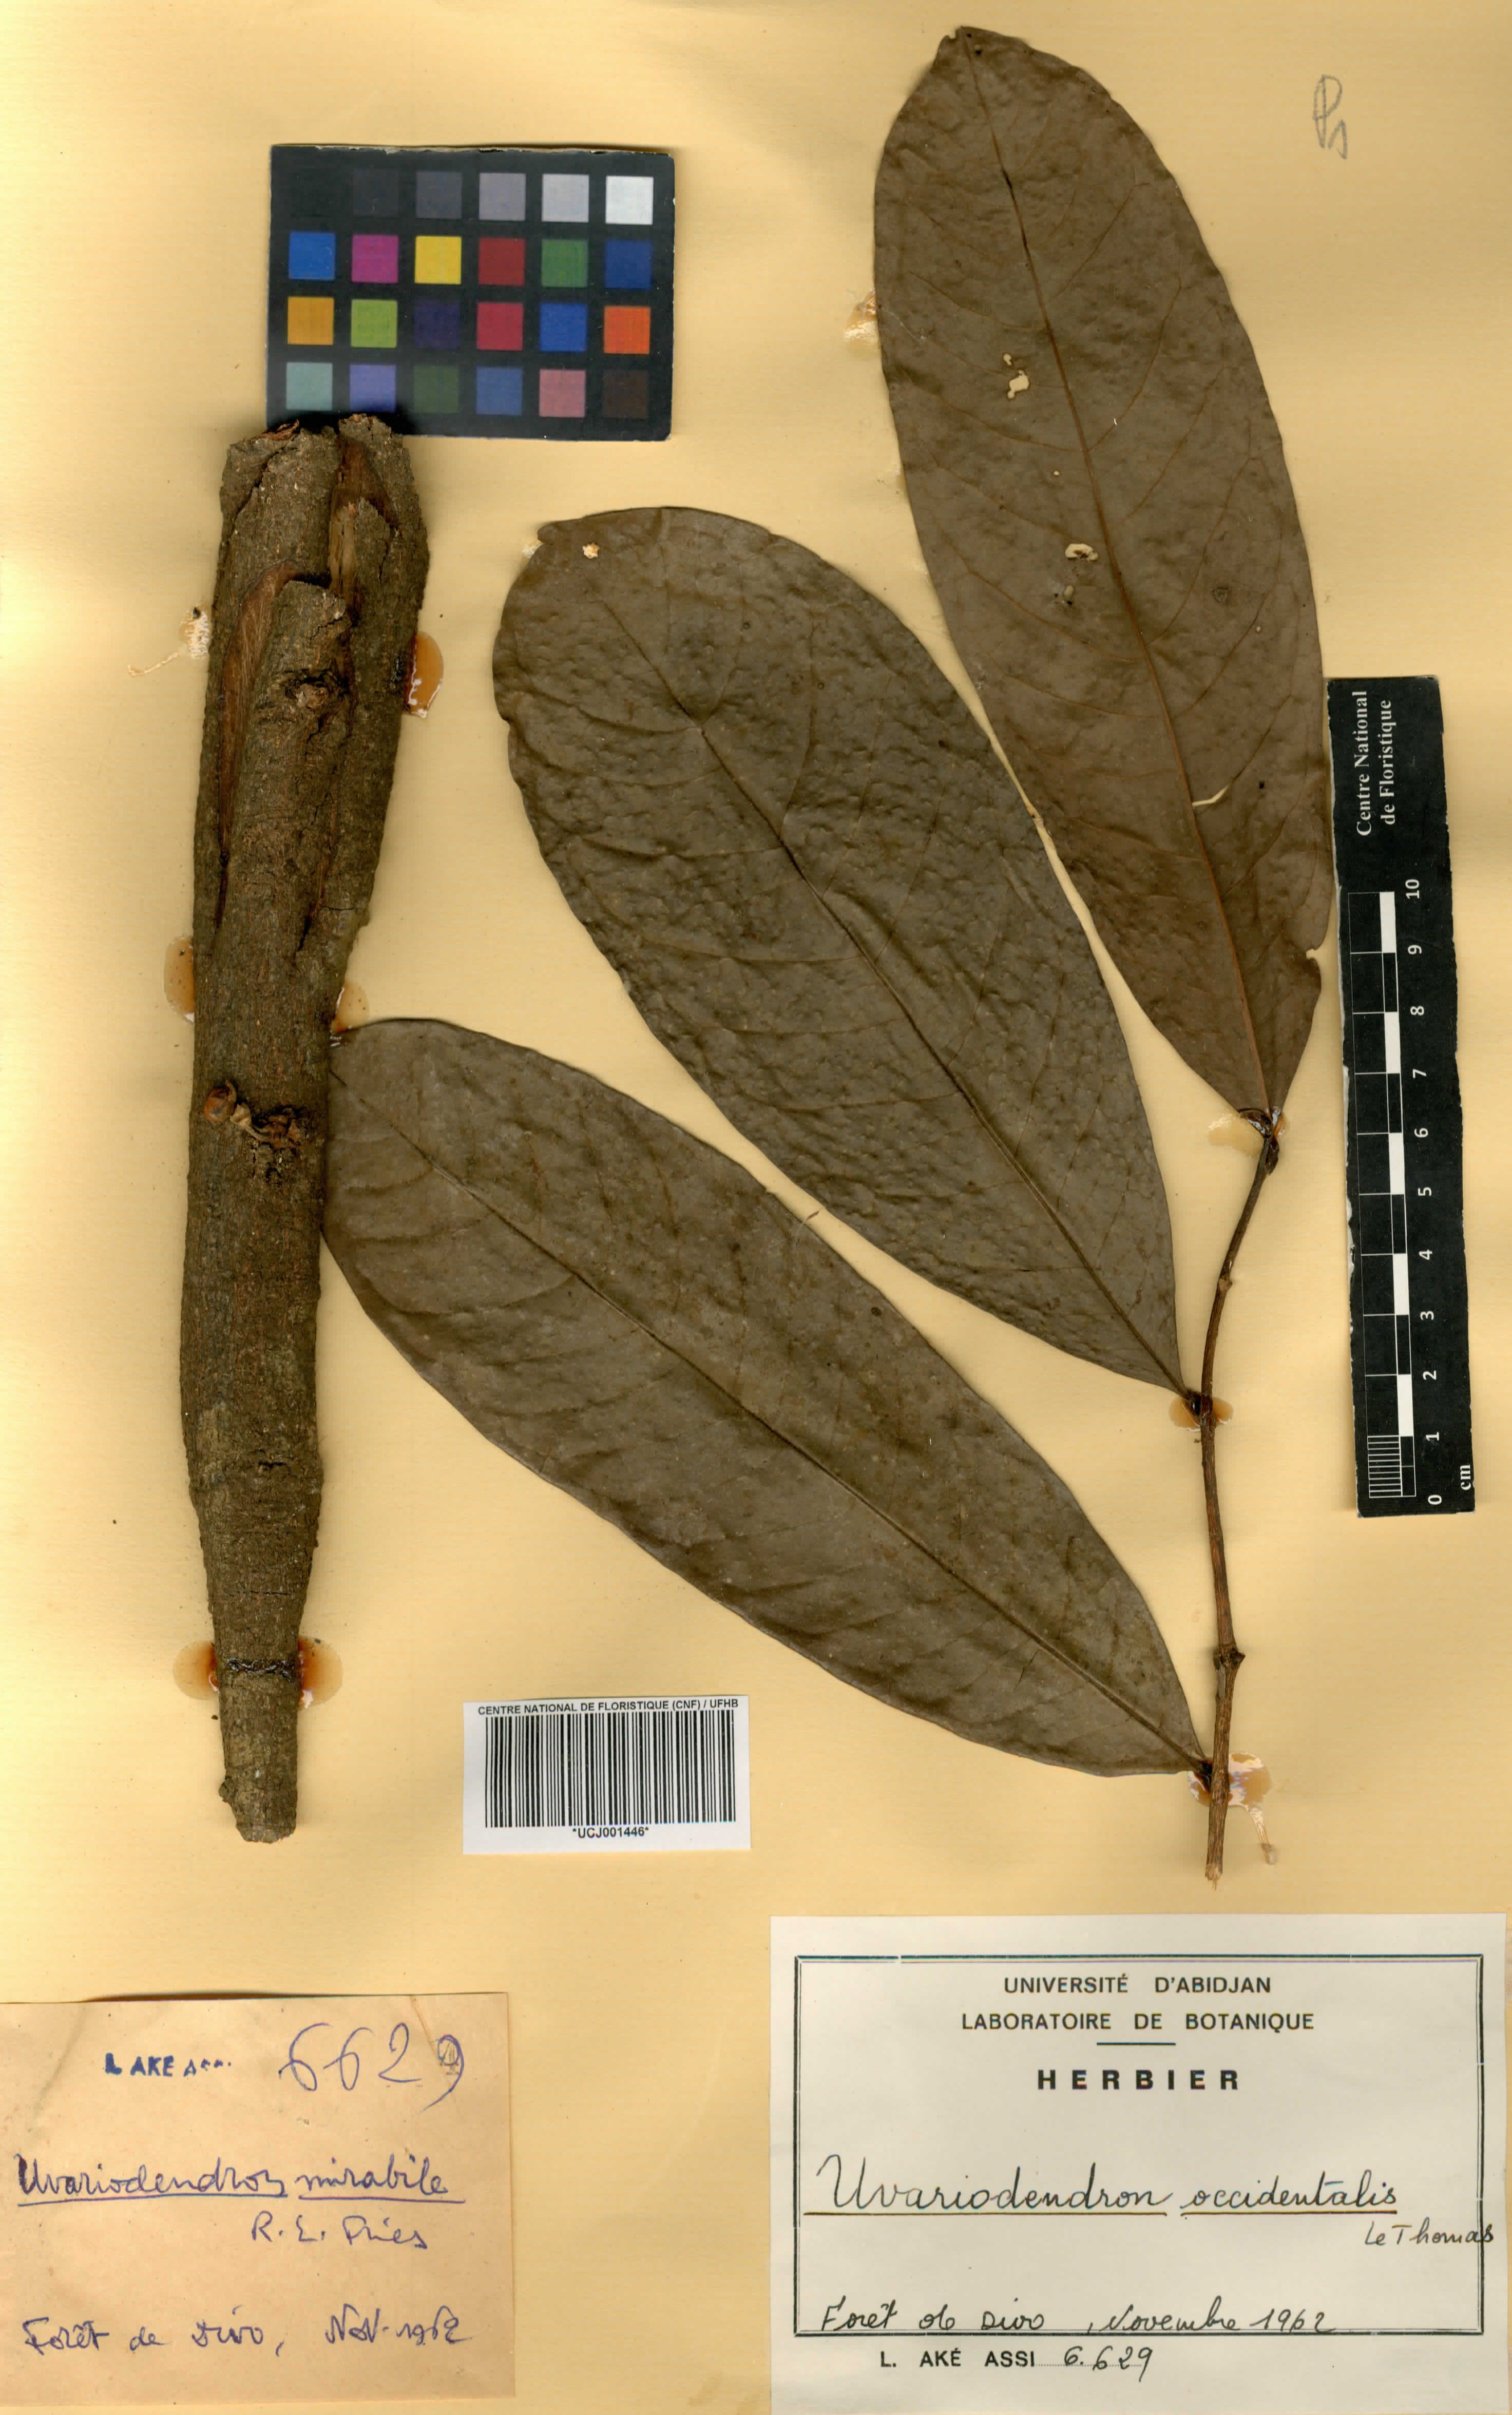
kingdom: Plantae
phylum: Tracheophyta
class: Magnoliopsida
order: Magnoliales
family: Annonaceae
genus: Uvariodendron
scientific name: Uvariodendron occidentale
